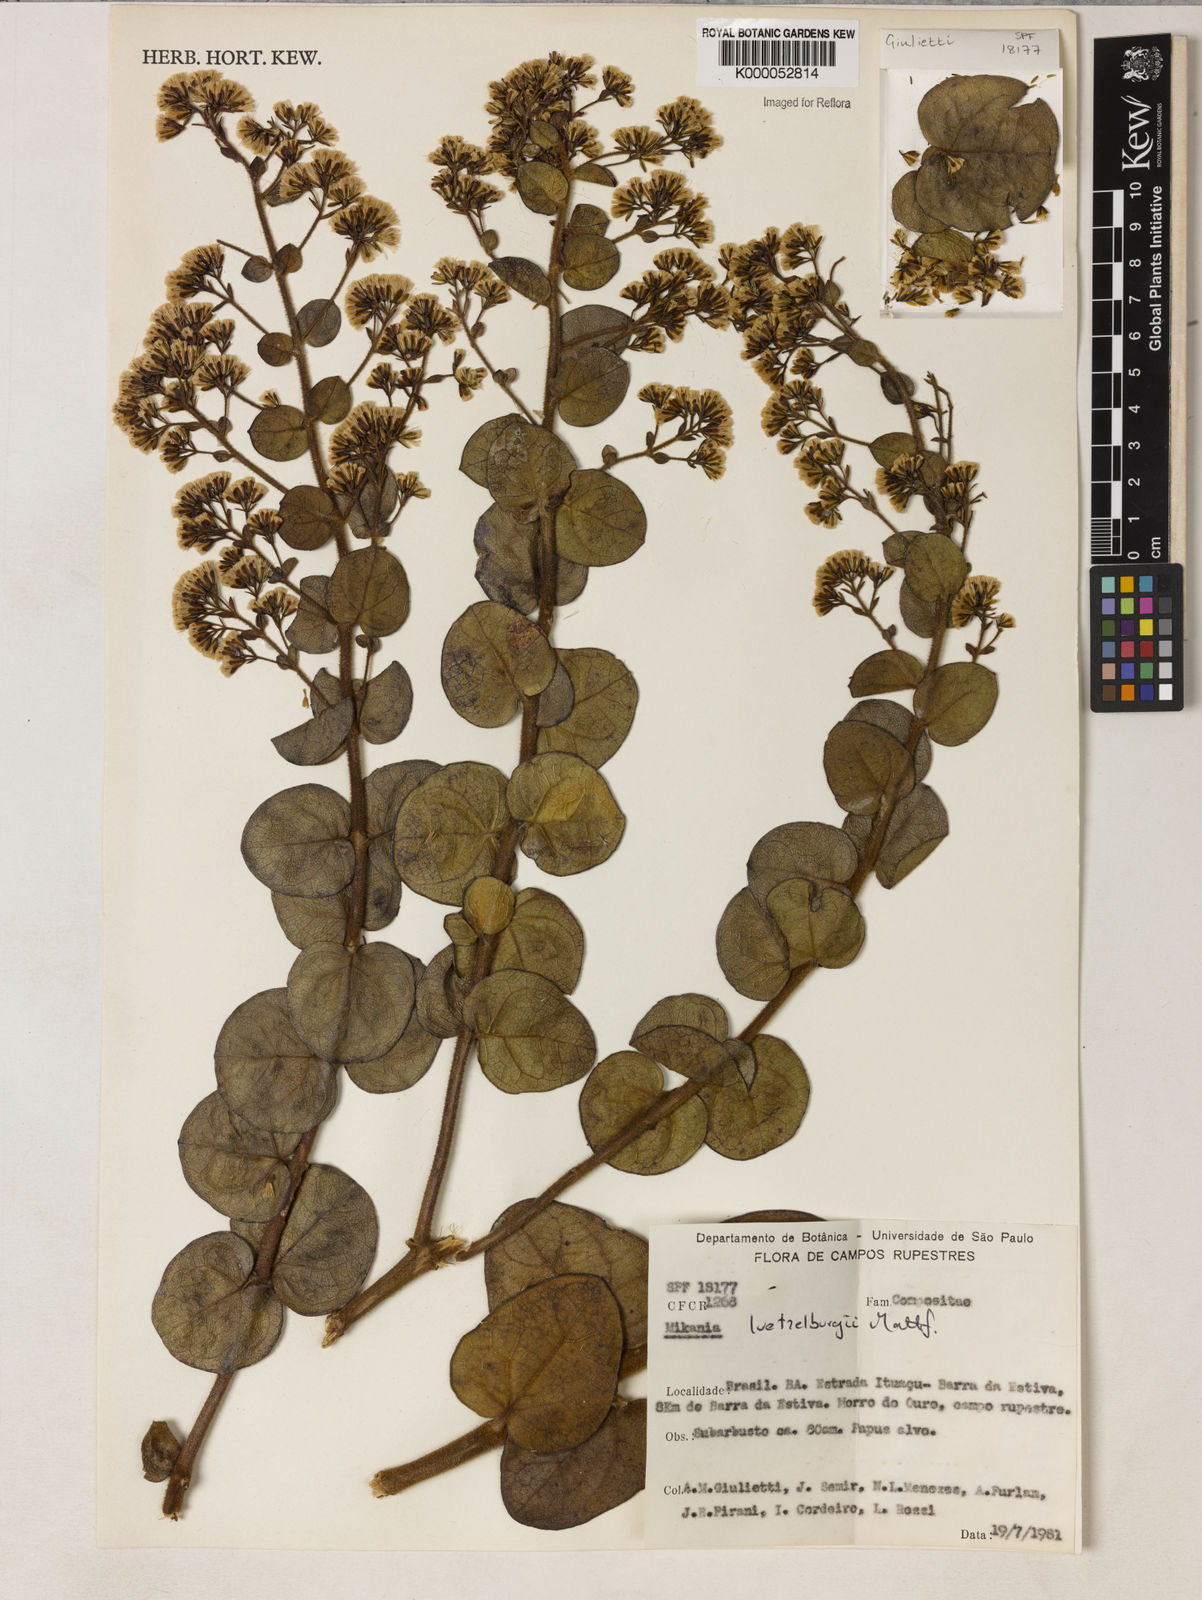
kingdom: Plantae
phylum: Tracheophyta
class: Magnoliopsida
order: Asterales
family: Asteraceae
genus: Mikania
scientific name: Mikania luetzelburgii
